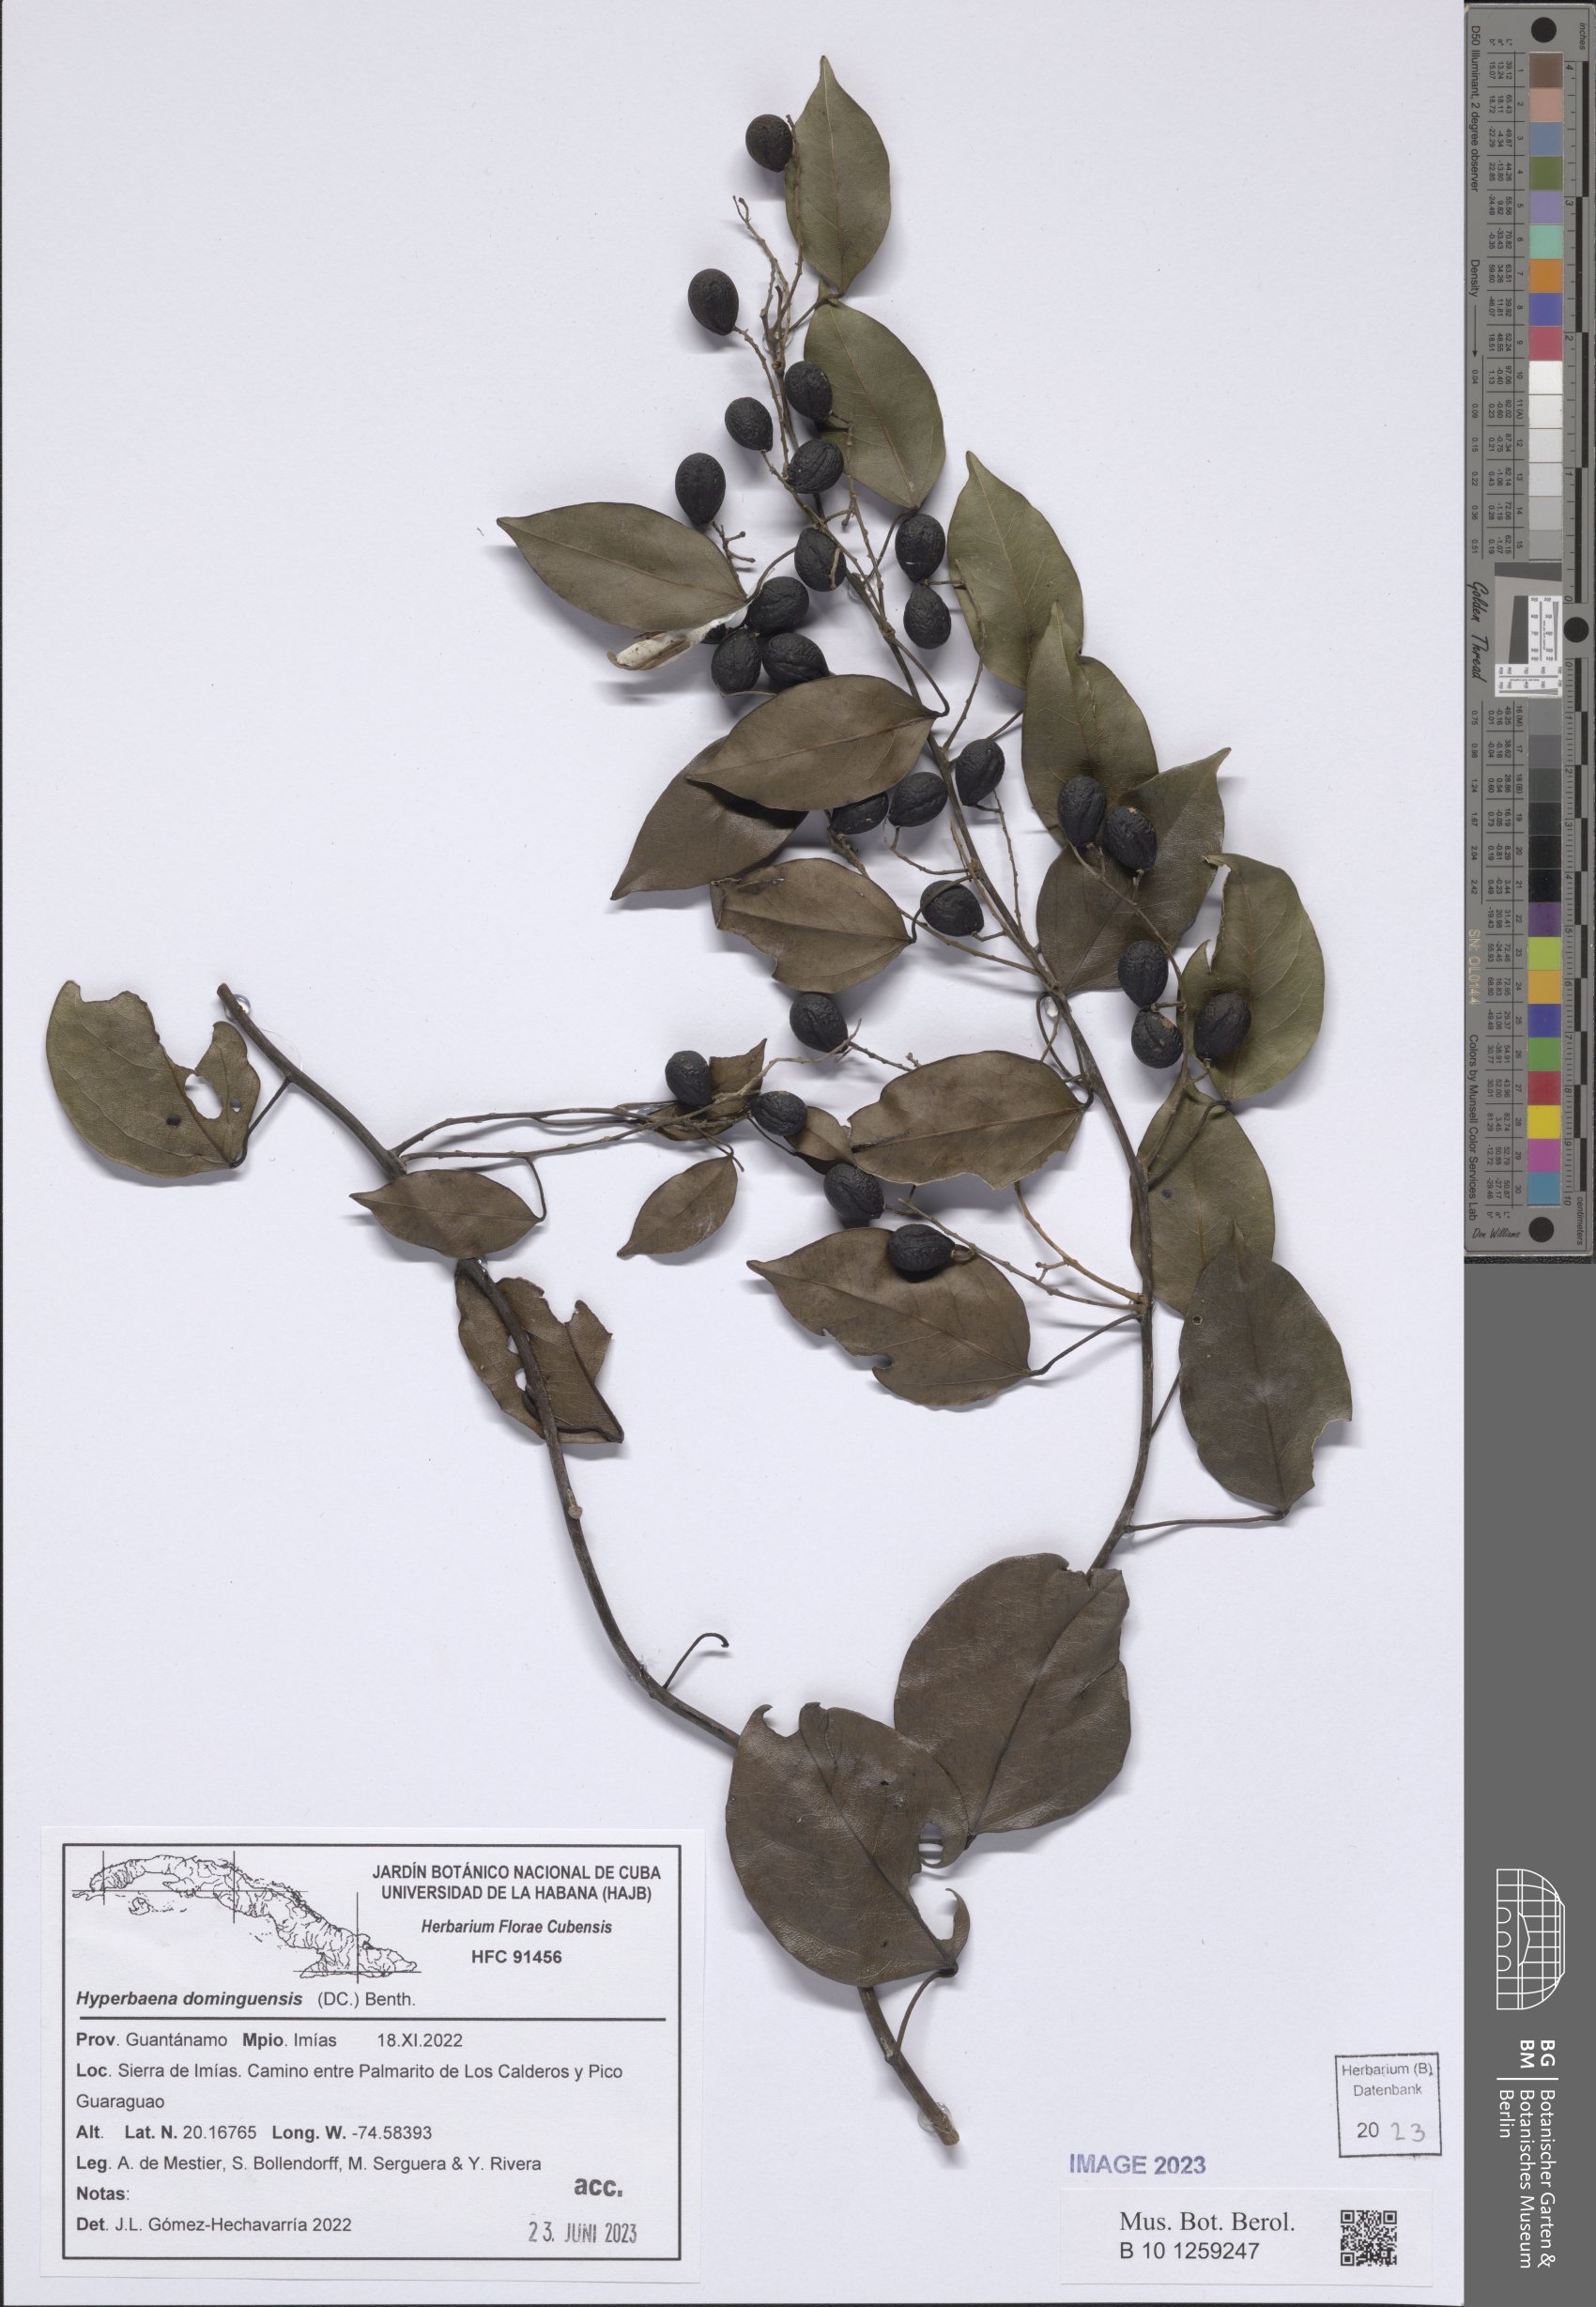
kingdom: Plantae
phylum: Tracheophyta
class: Magnoliopsida
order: Ranunculales
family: Menispermaceae
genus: Hyperbaena
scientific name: Hyperbaena domingensis
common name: Forest snakevine
